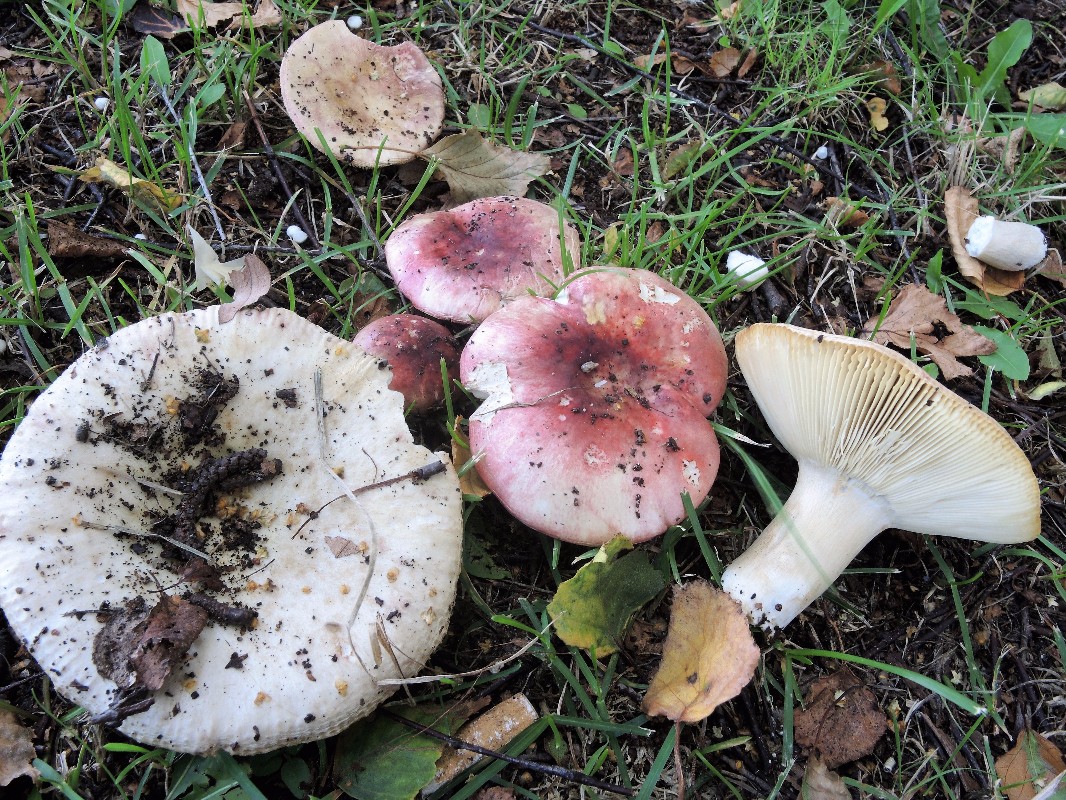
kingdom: Fungi
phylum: Basidiomycota
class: Agaricomycetes
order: Russulales
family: Russulaceae
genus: Russula
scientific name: Russula depallens
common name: falmende skørhat
